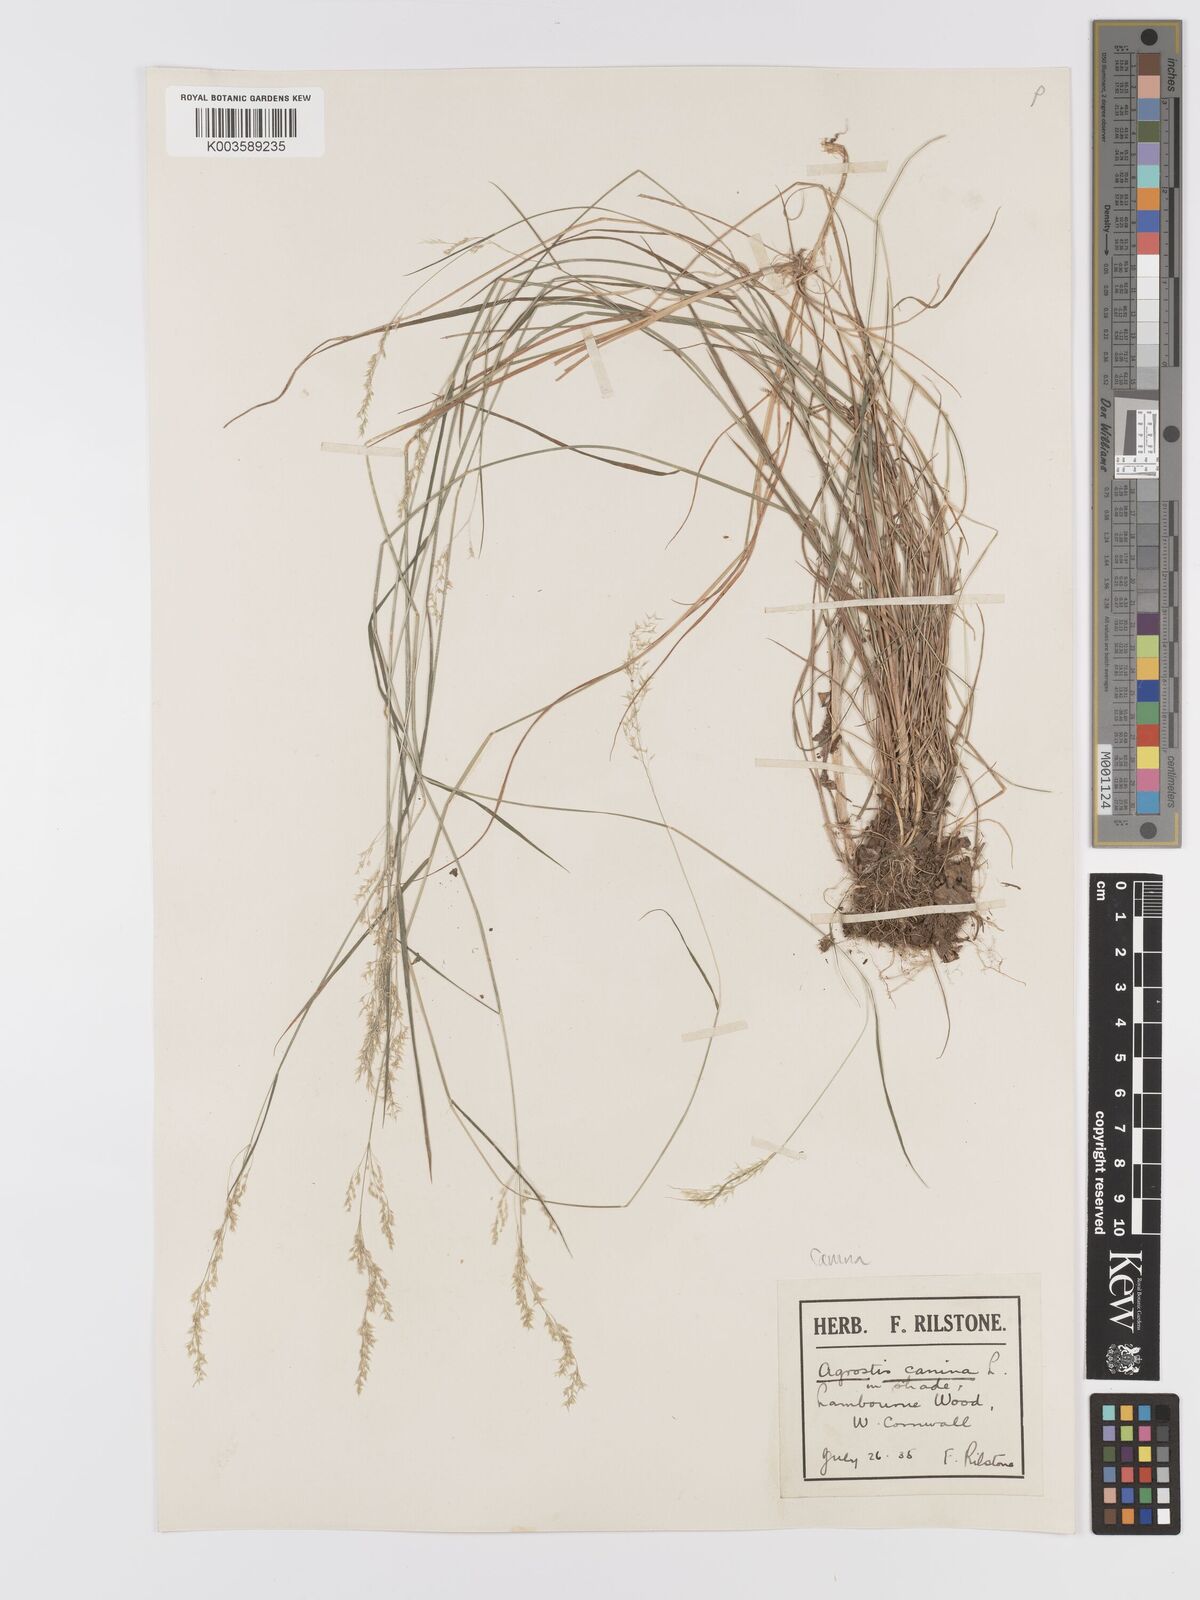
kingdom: Plantae
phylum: Tracheophyta
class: Liliopsida
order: Poales
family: Poaceae
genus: Agrostis
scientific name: Agrostis canina
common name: Velvet bent
